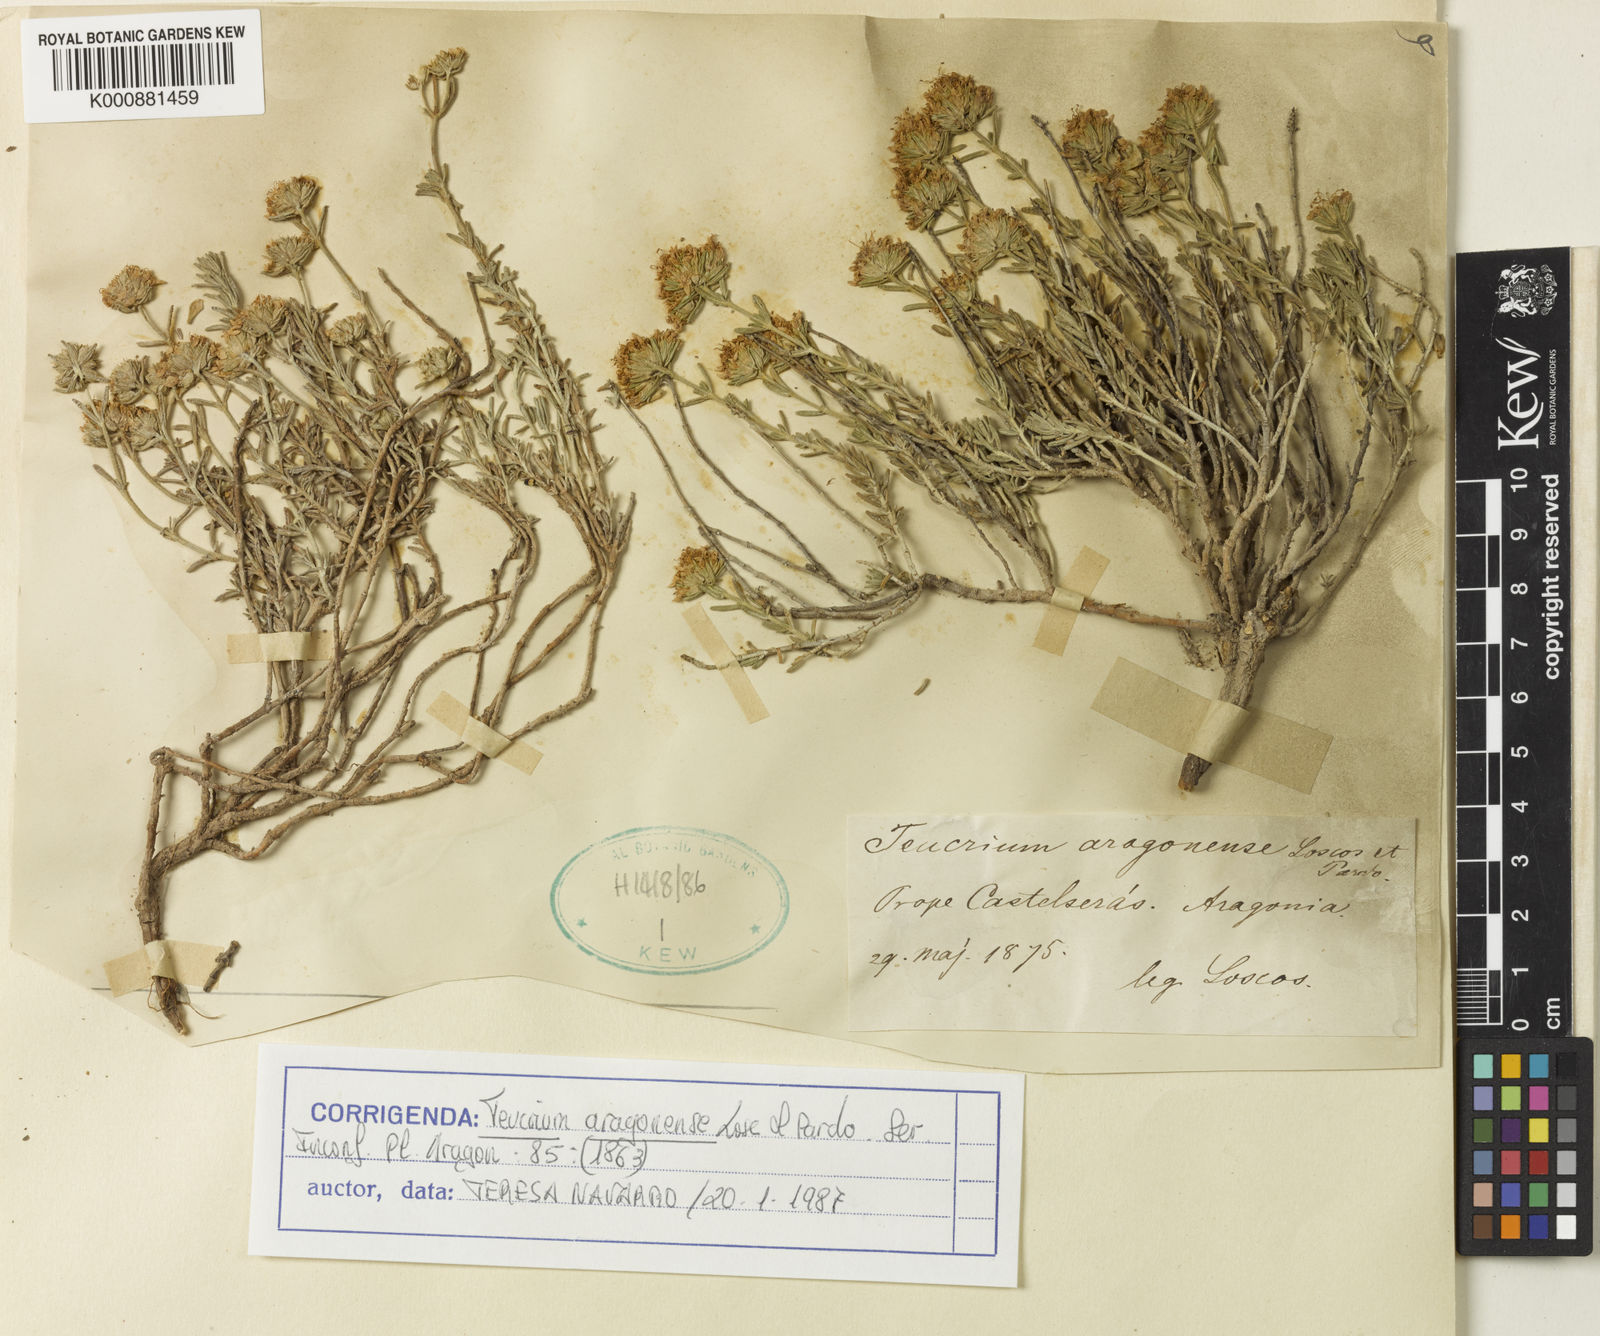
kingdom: Plantae
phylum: Tracheophyta
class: Magnoliopsida
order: Lamiales
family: Lamiaceae
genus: Teucrium
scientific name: Teucrium aragonense
